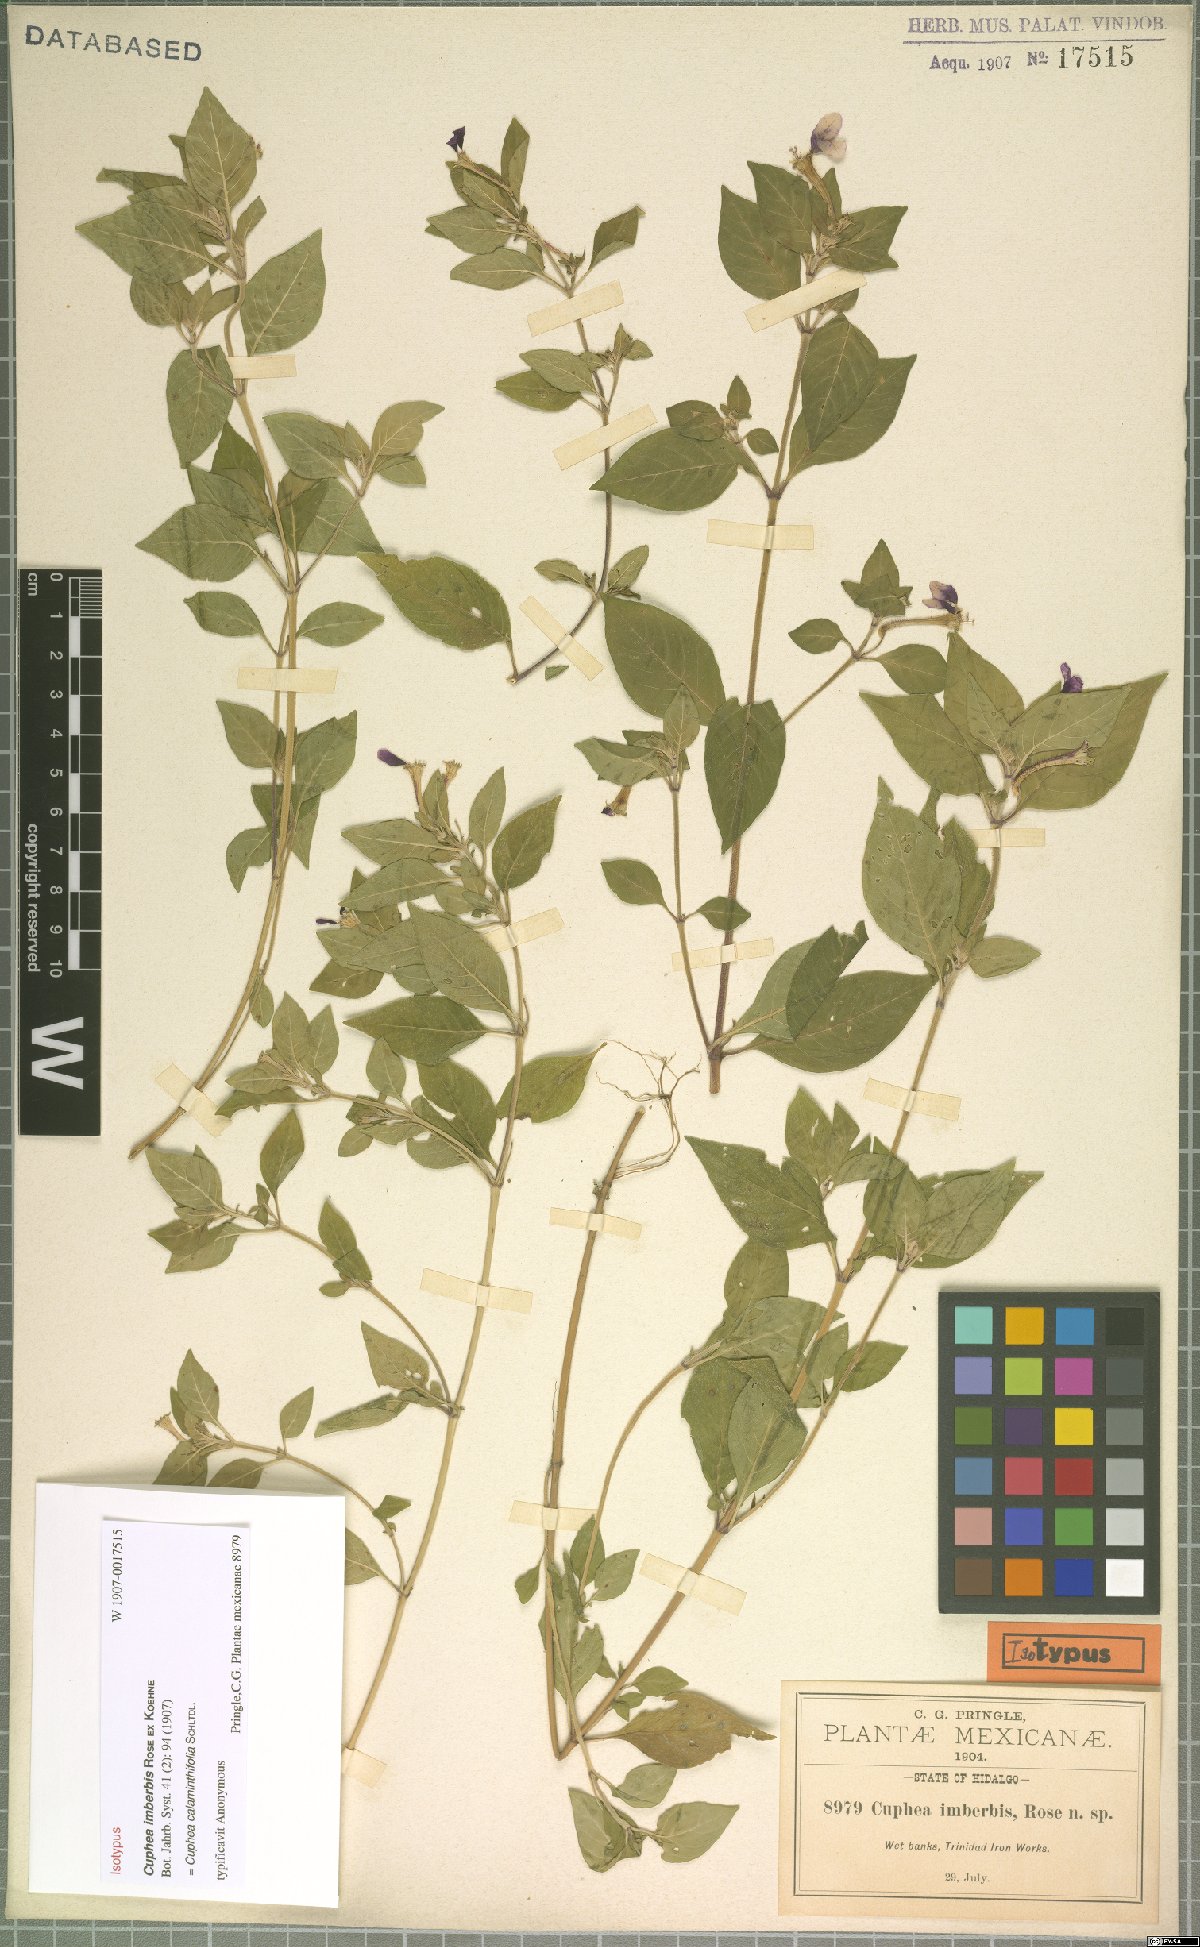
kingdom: Plantae
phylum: Tracheophyta
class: Magnoliopsida
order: Myrtales
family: Lythraceae
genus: Cuphea
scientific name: Cuphea calaminthifolia
